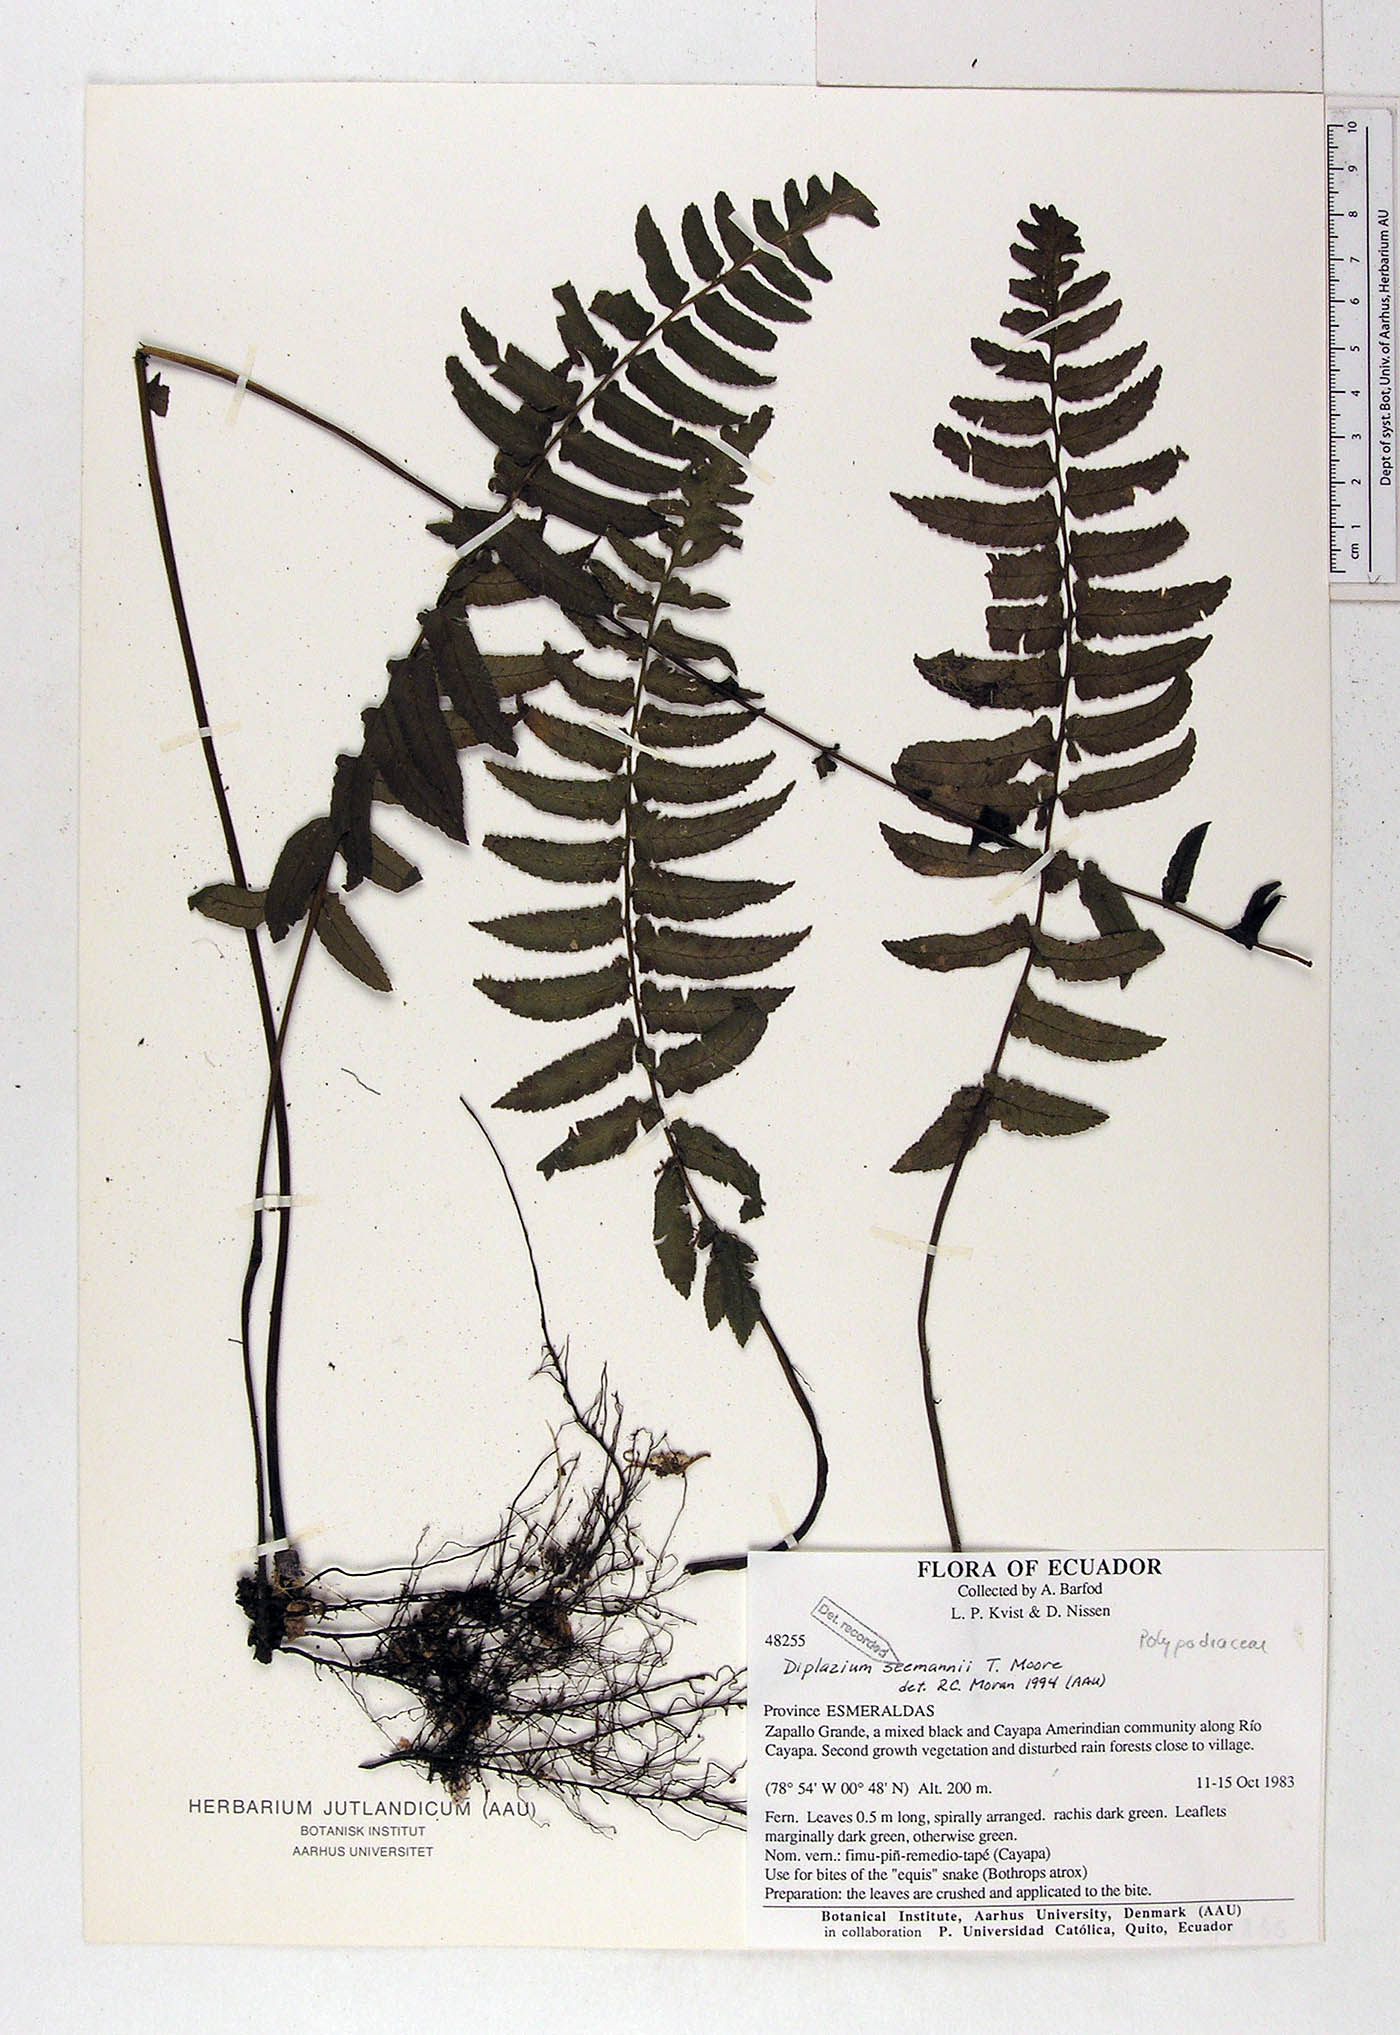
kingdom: Plantae
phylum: Tracheophyta
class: Polypodiopsida
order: Polypodiales
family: Athyriaceae
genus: Diplazium
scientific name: Diplazium seemannii
